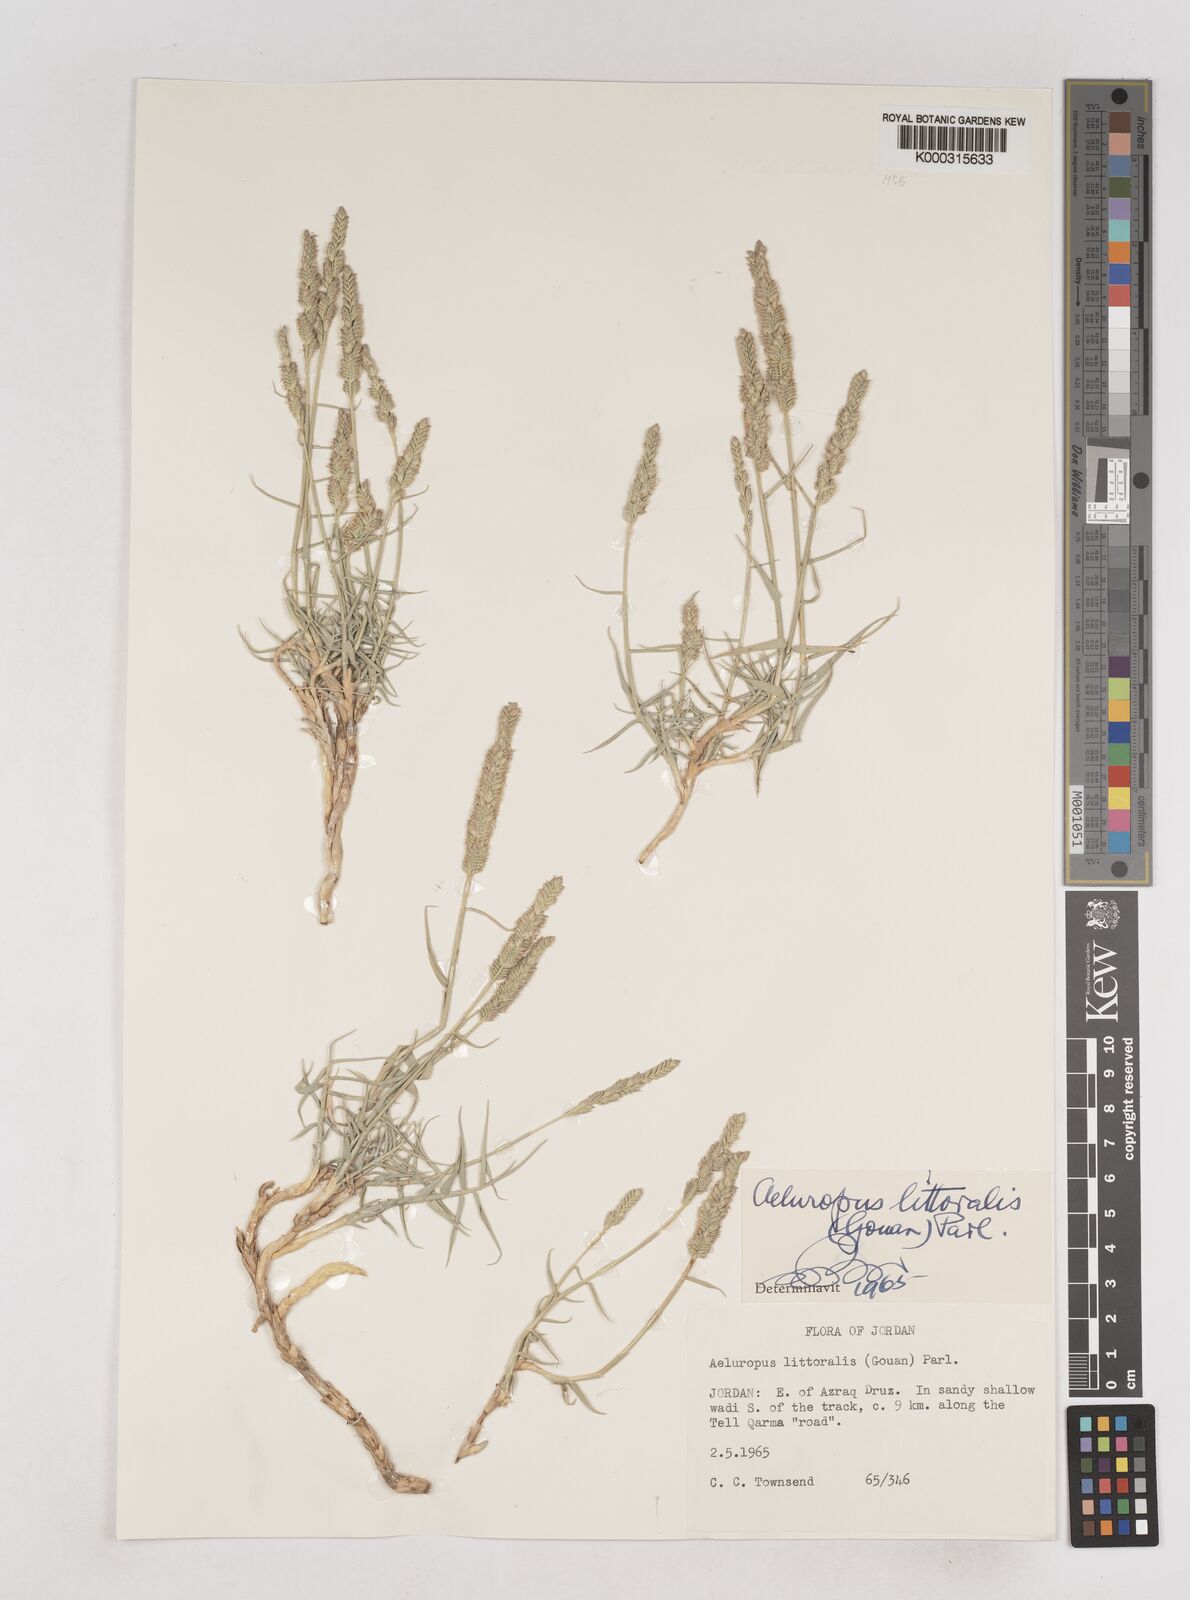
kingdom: Plantae
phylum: Tracheophyta
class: Liliopsida
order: Poales
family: Poaceae
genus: Aeluropus
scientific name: Aeluropus littoralis
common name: Indian walnut
